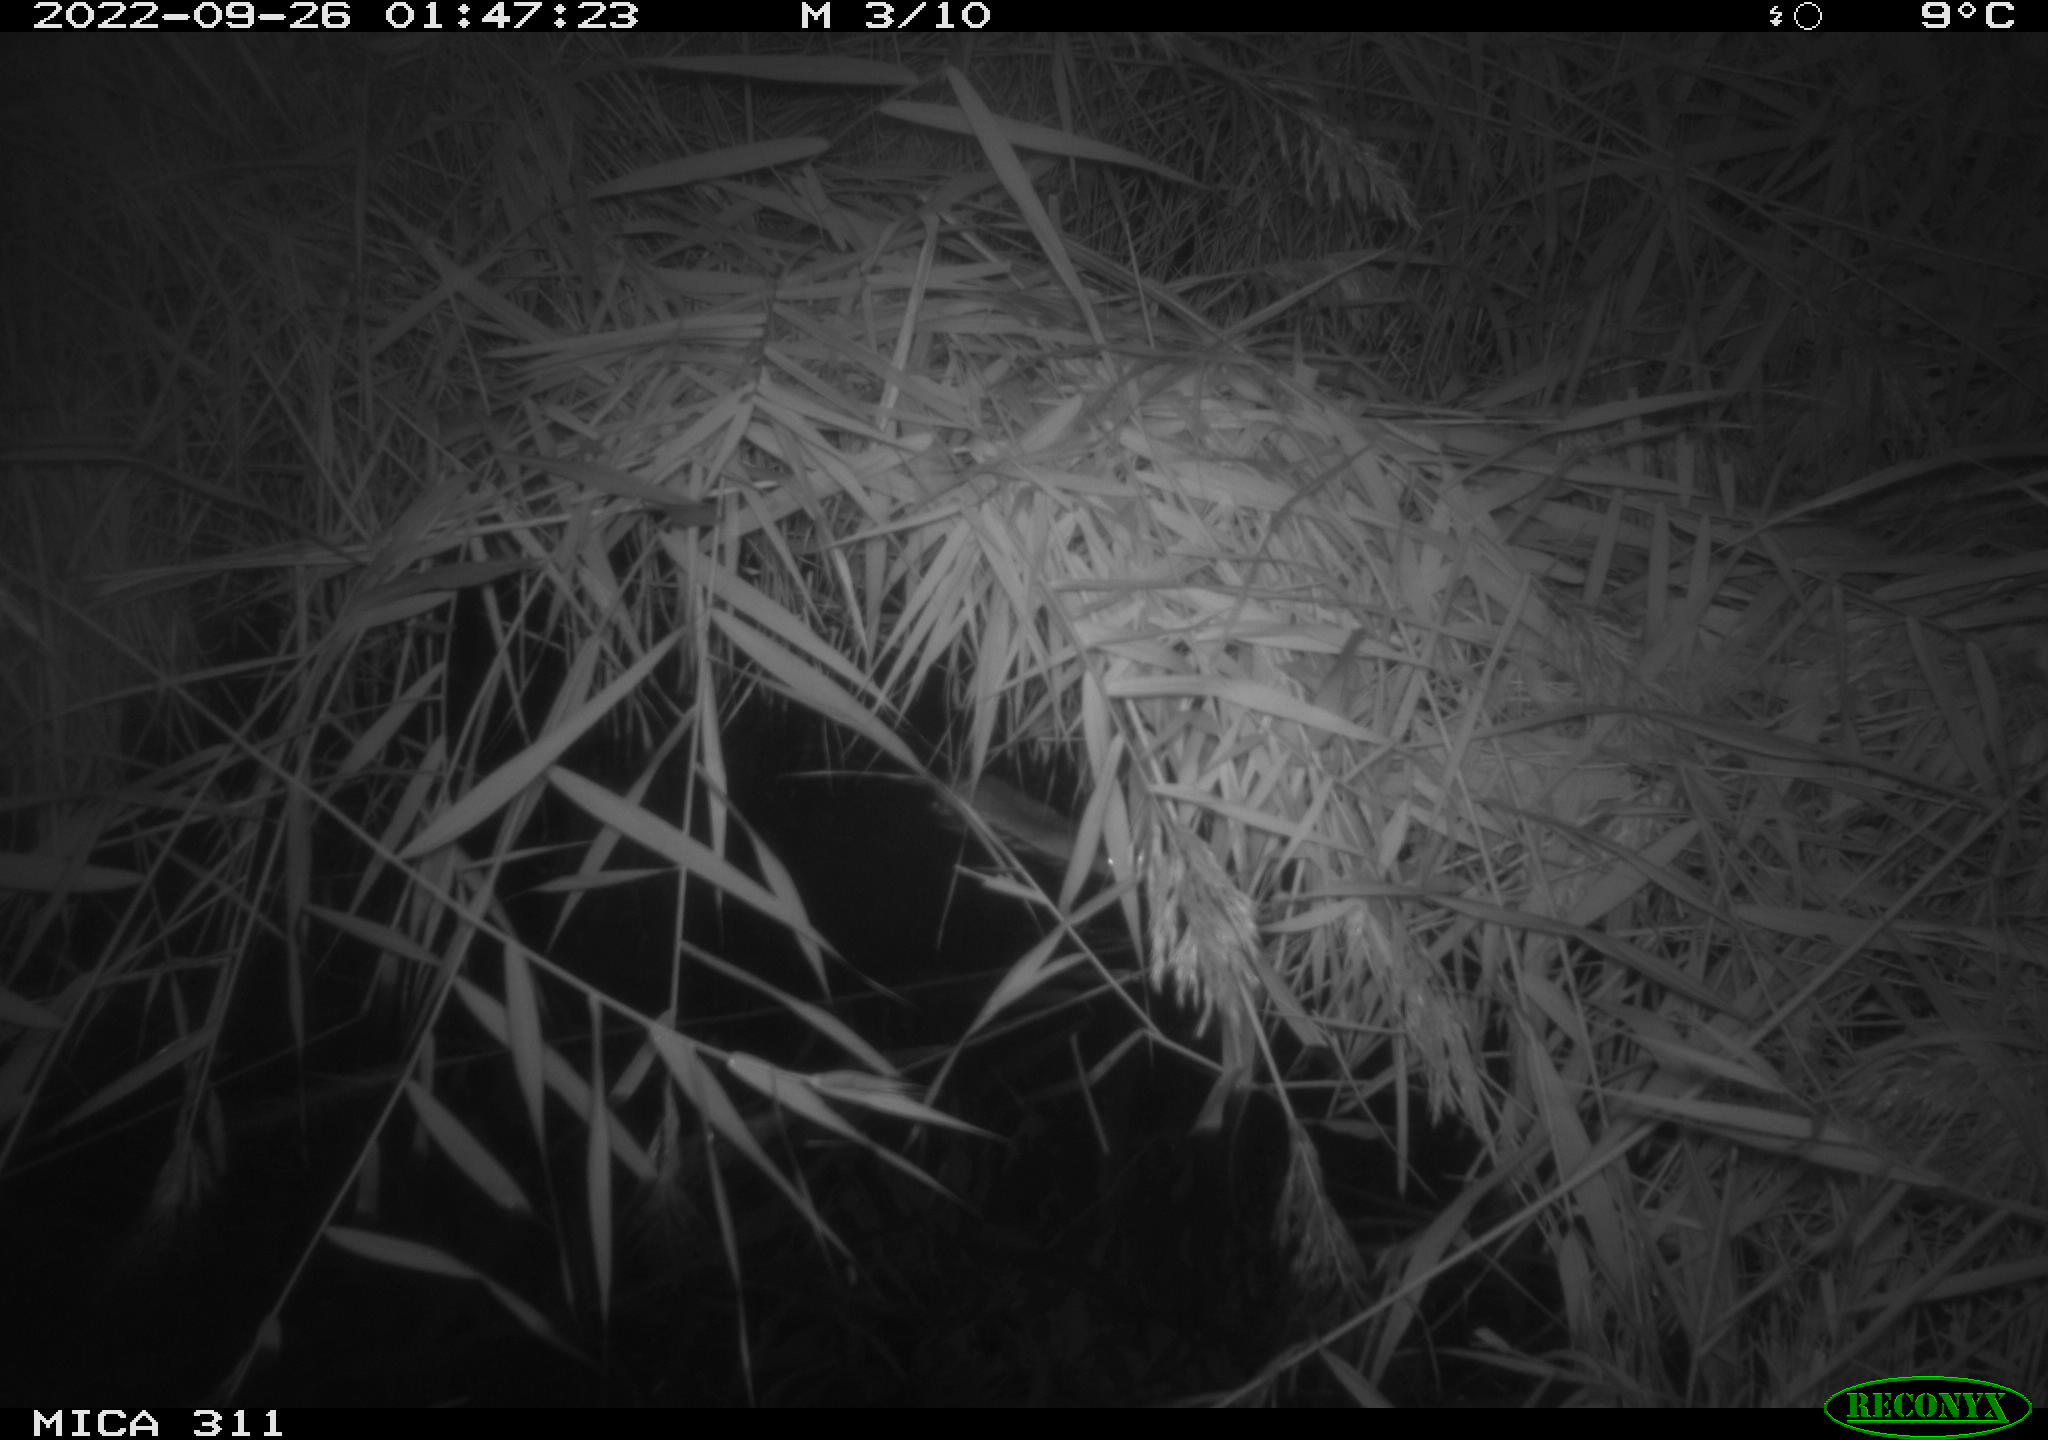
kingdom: Animalia
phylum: Chordata
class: Mammalia
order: Rodentia
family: Muridae
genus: Rattus
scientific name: Rattus norvegicus
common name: Brown rat
